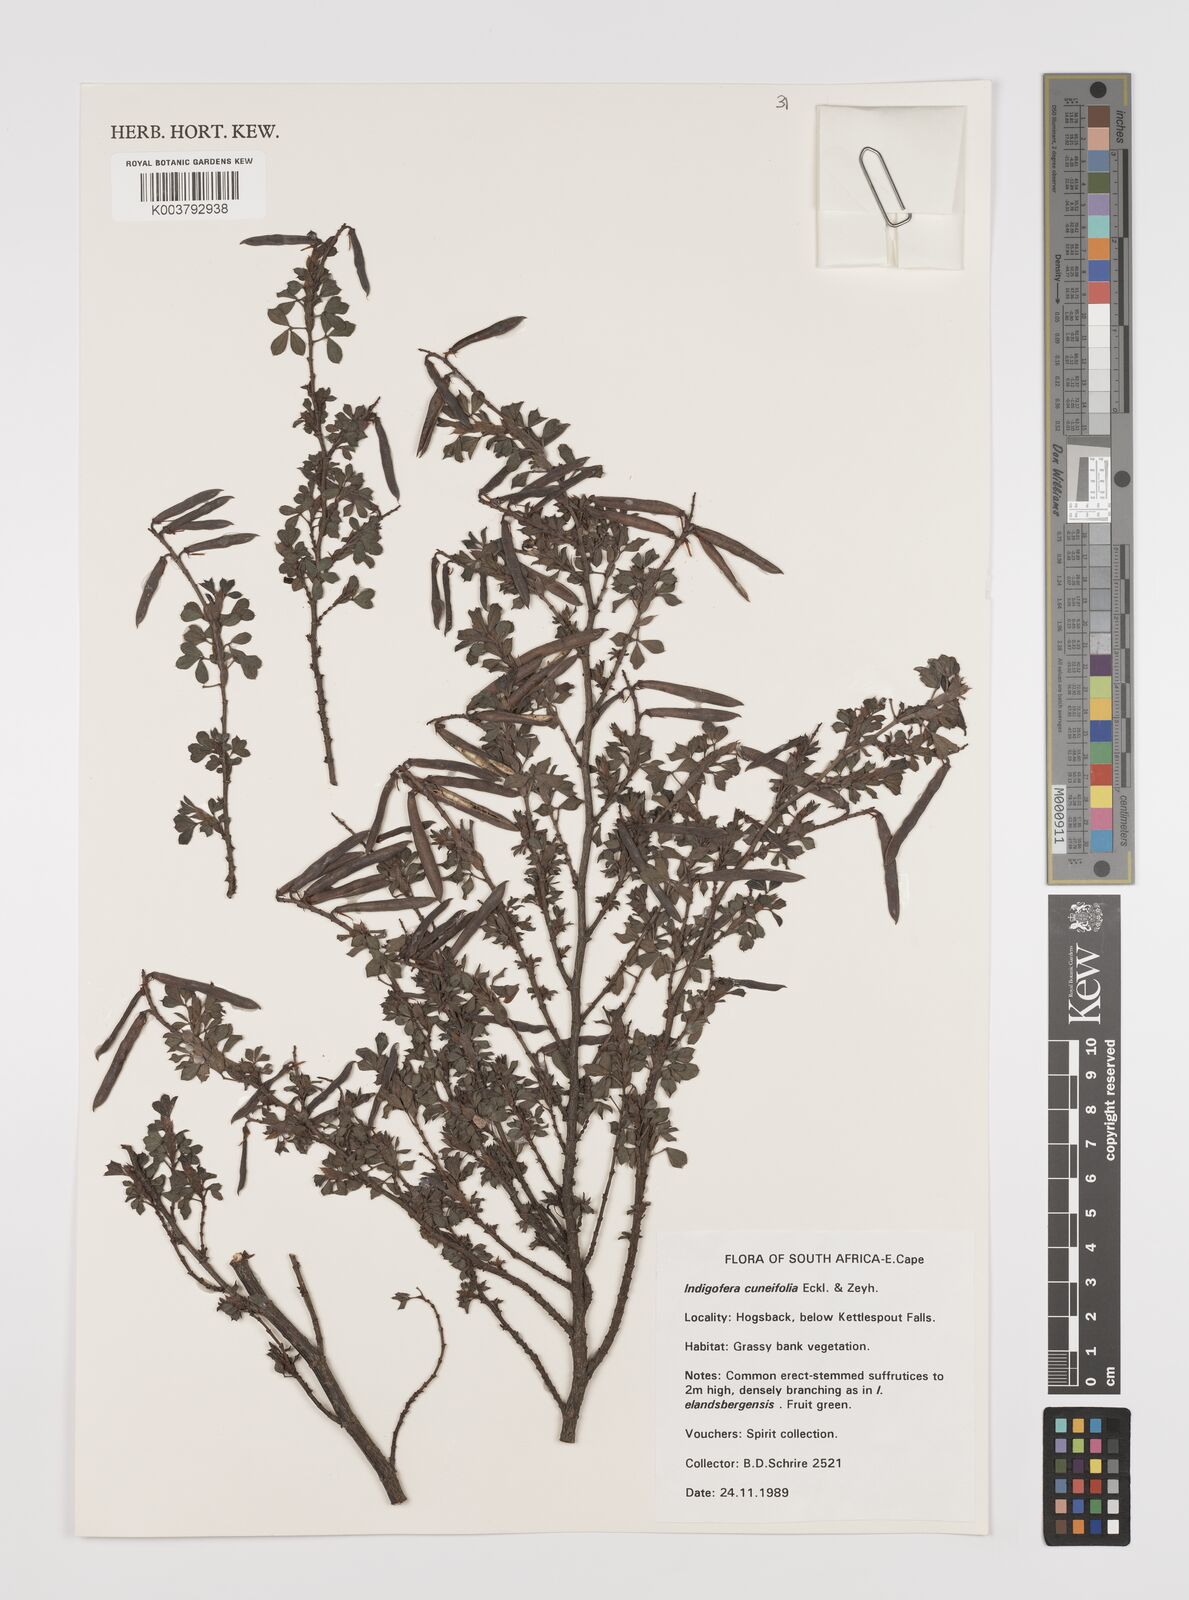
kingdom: Plantae
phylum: Tracheophyta
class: Magnoliopsida
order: Fabales
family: Fabaceae
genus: Indigofera
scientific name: Indigofera elandsbergensis
